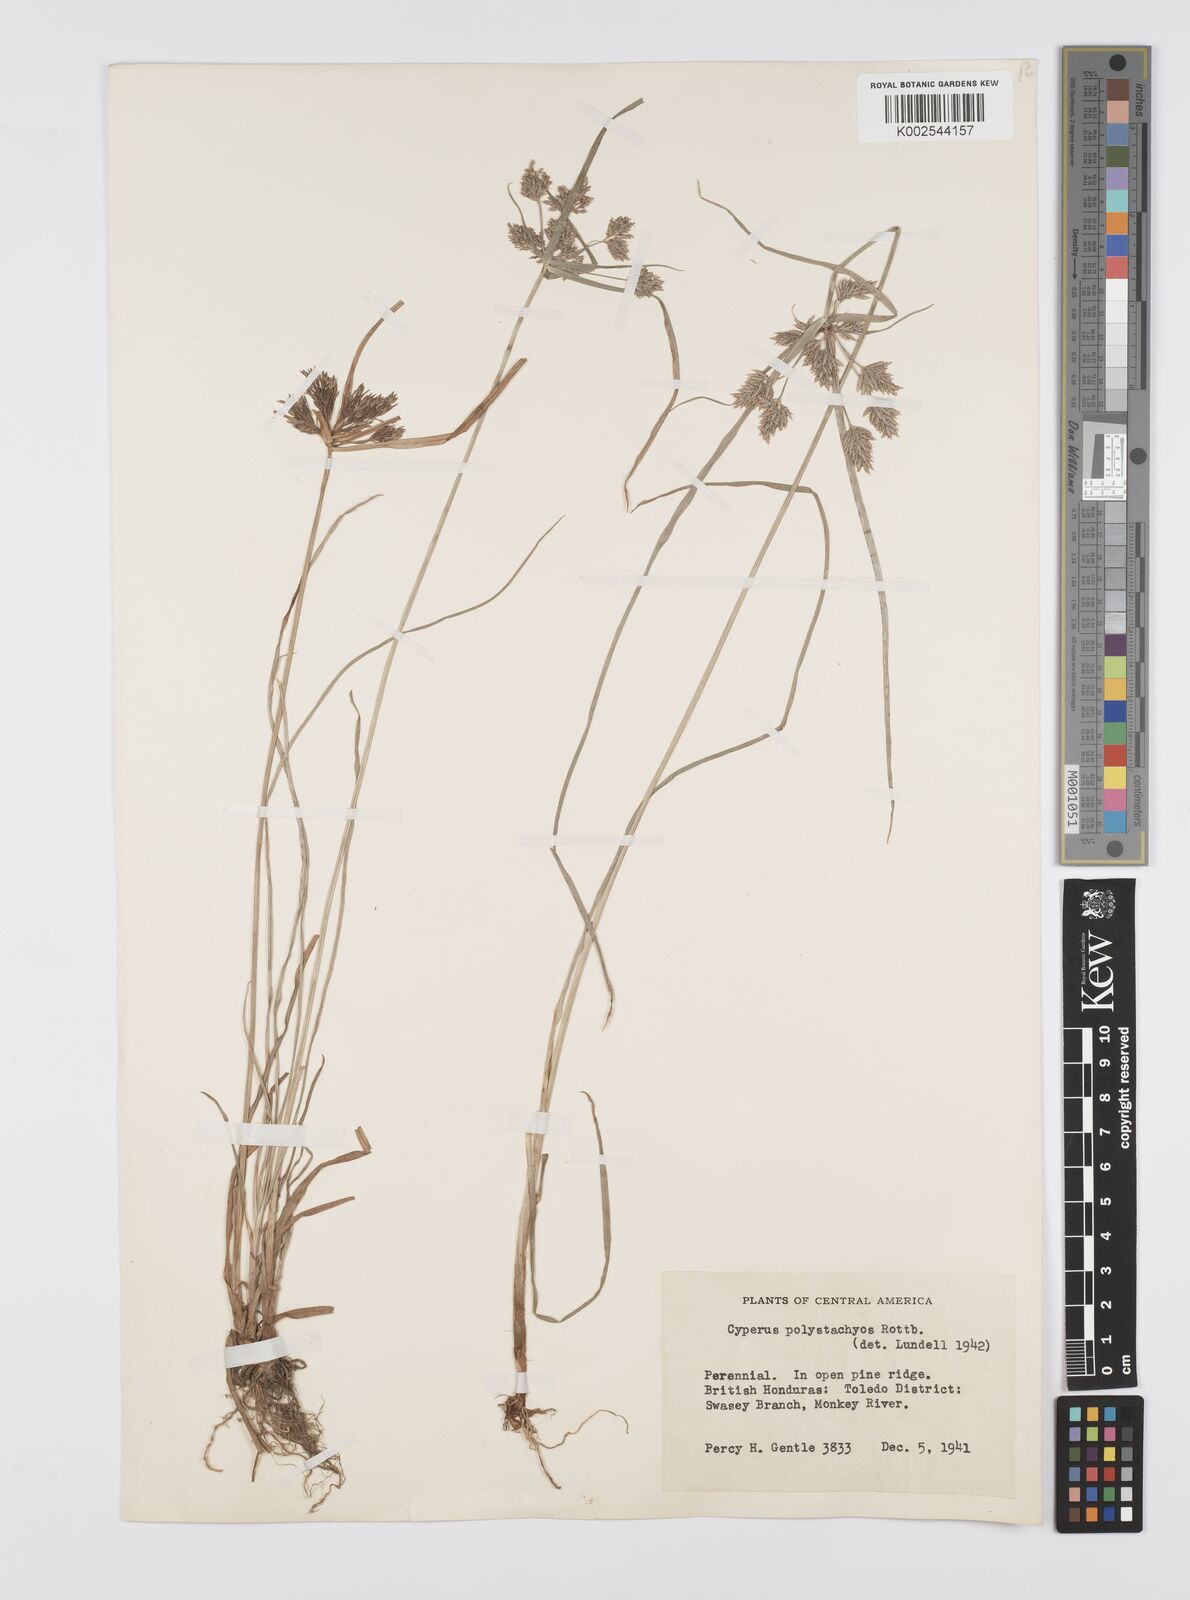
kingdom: Plantae
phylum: Tracheophyta
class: Liliopsida
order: Poales
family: Cyperaceae
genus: Cyperus
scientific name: Cyperus polystachyos
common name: Bunchy flat sedge
